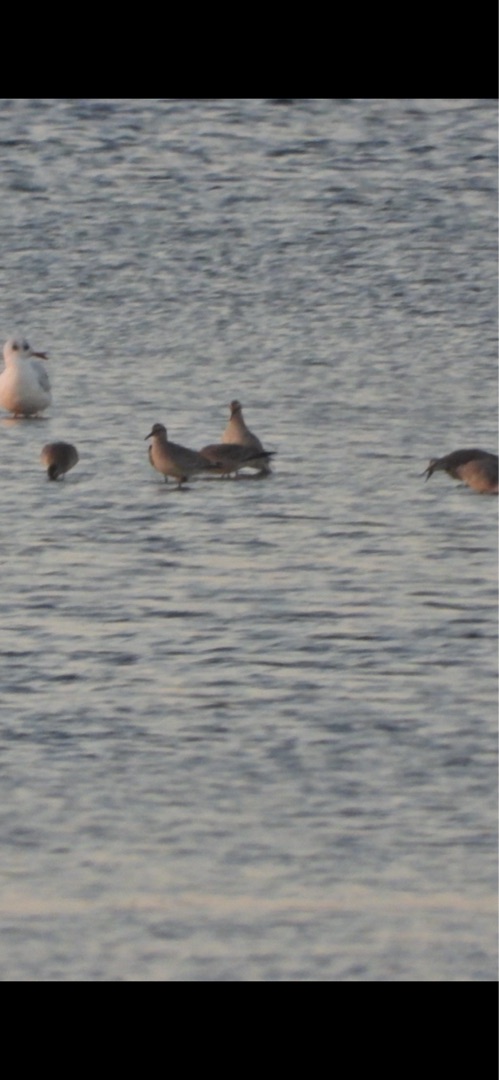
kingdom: Animalia
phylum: Chordata
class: Aves
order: Charadriiformes
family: Scolopacidae
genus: Calidris
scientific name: Calidris canutus
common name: Islandsk ryle
